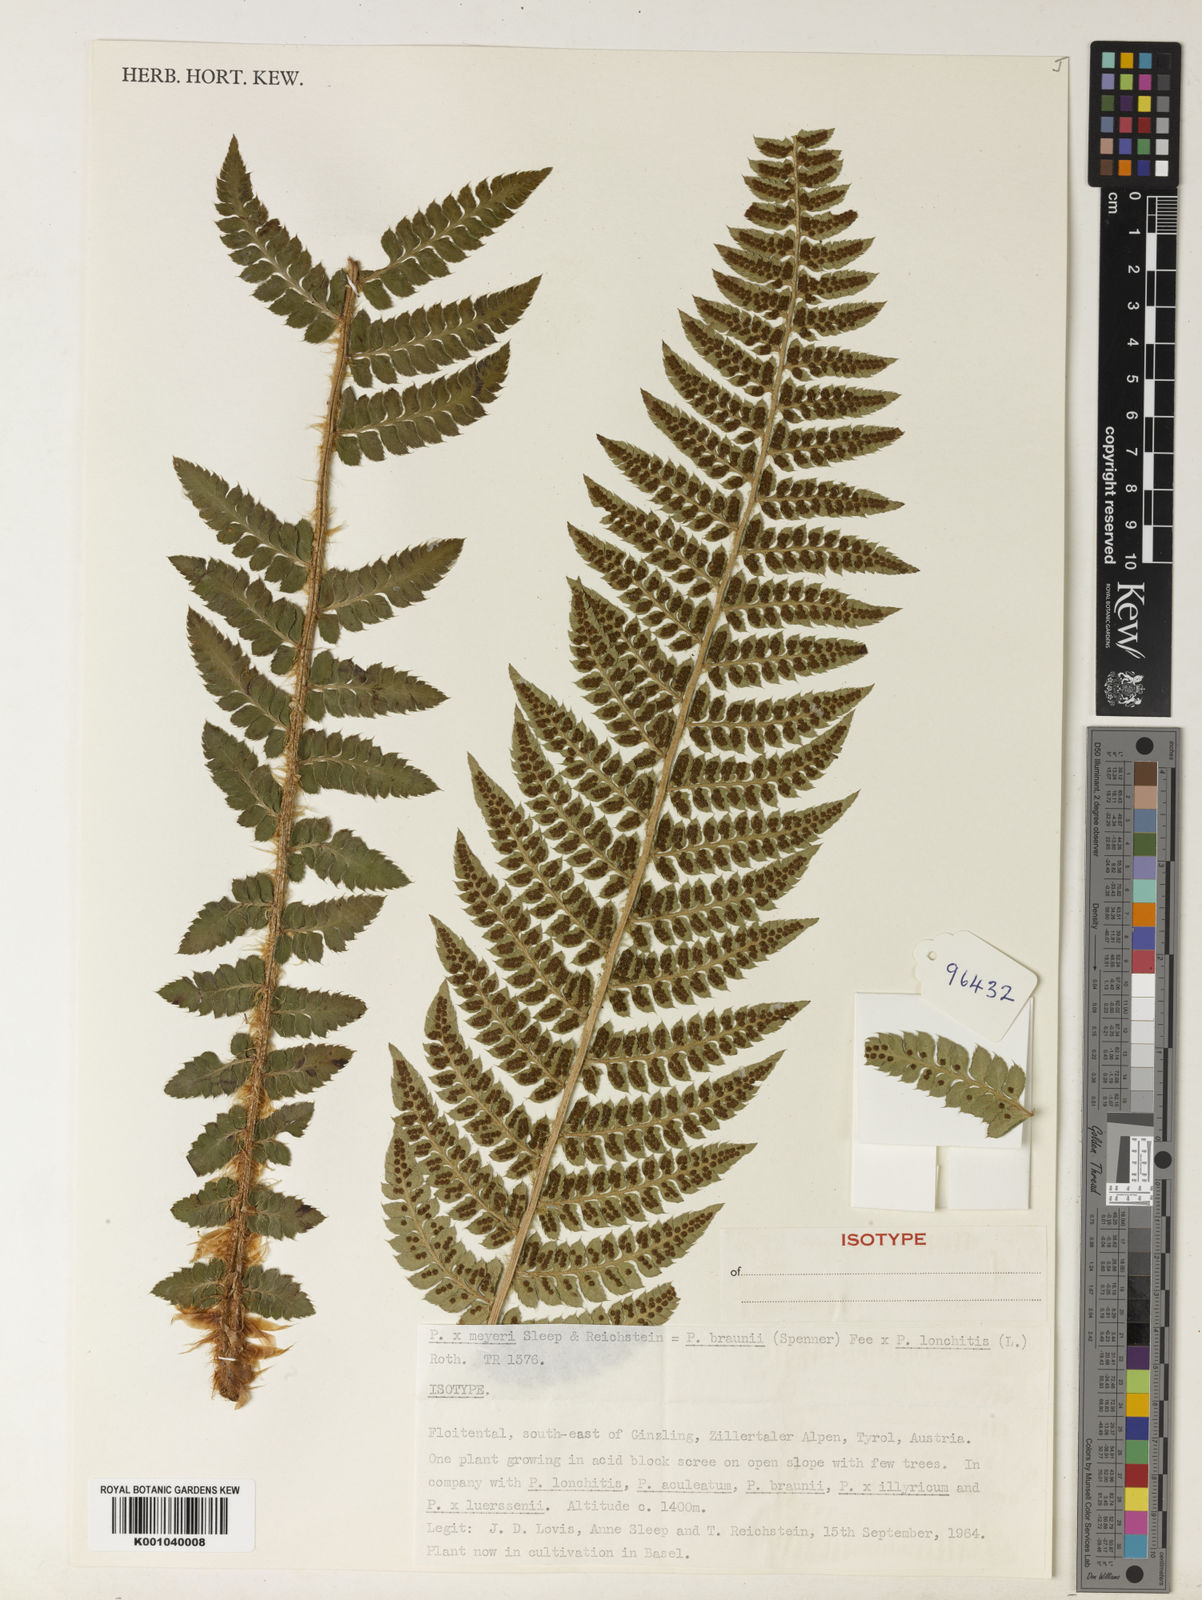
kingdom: Plantae
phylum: Tracheophyta
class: Polypodiopsida
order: Polypodiales
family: Dryopteridaceae
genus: Polystichum
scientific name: Polystichum
